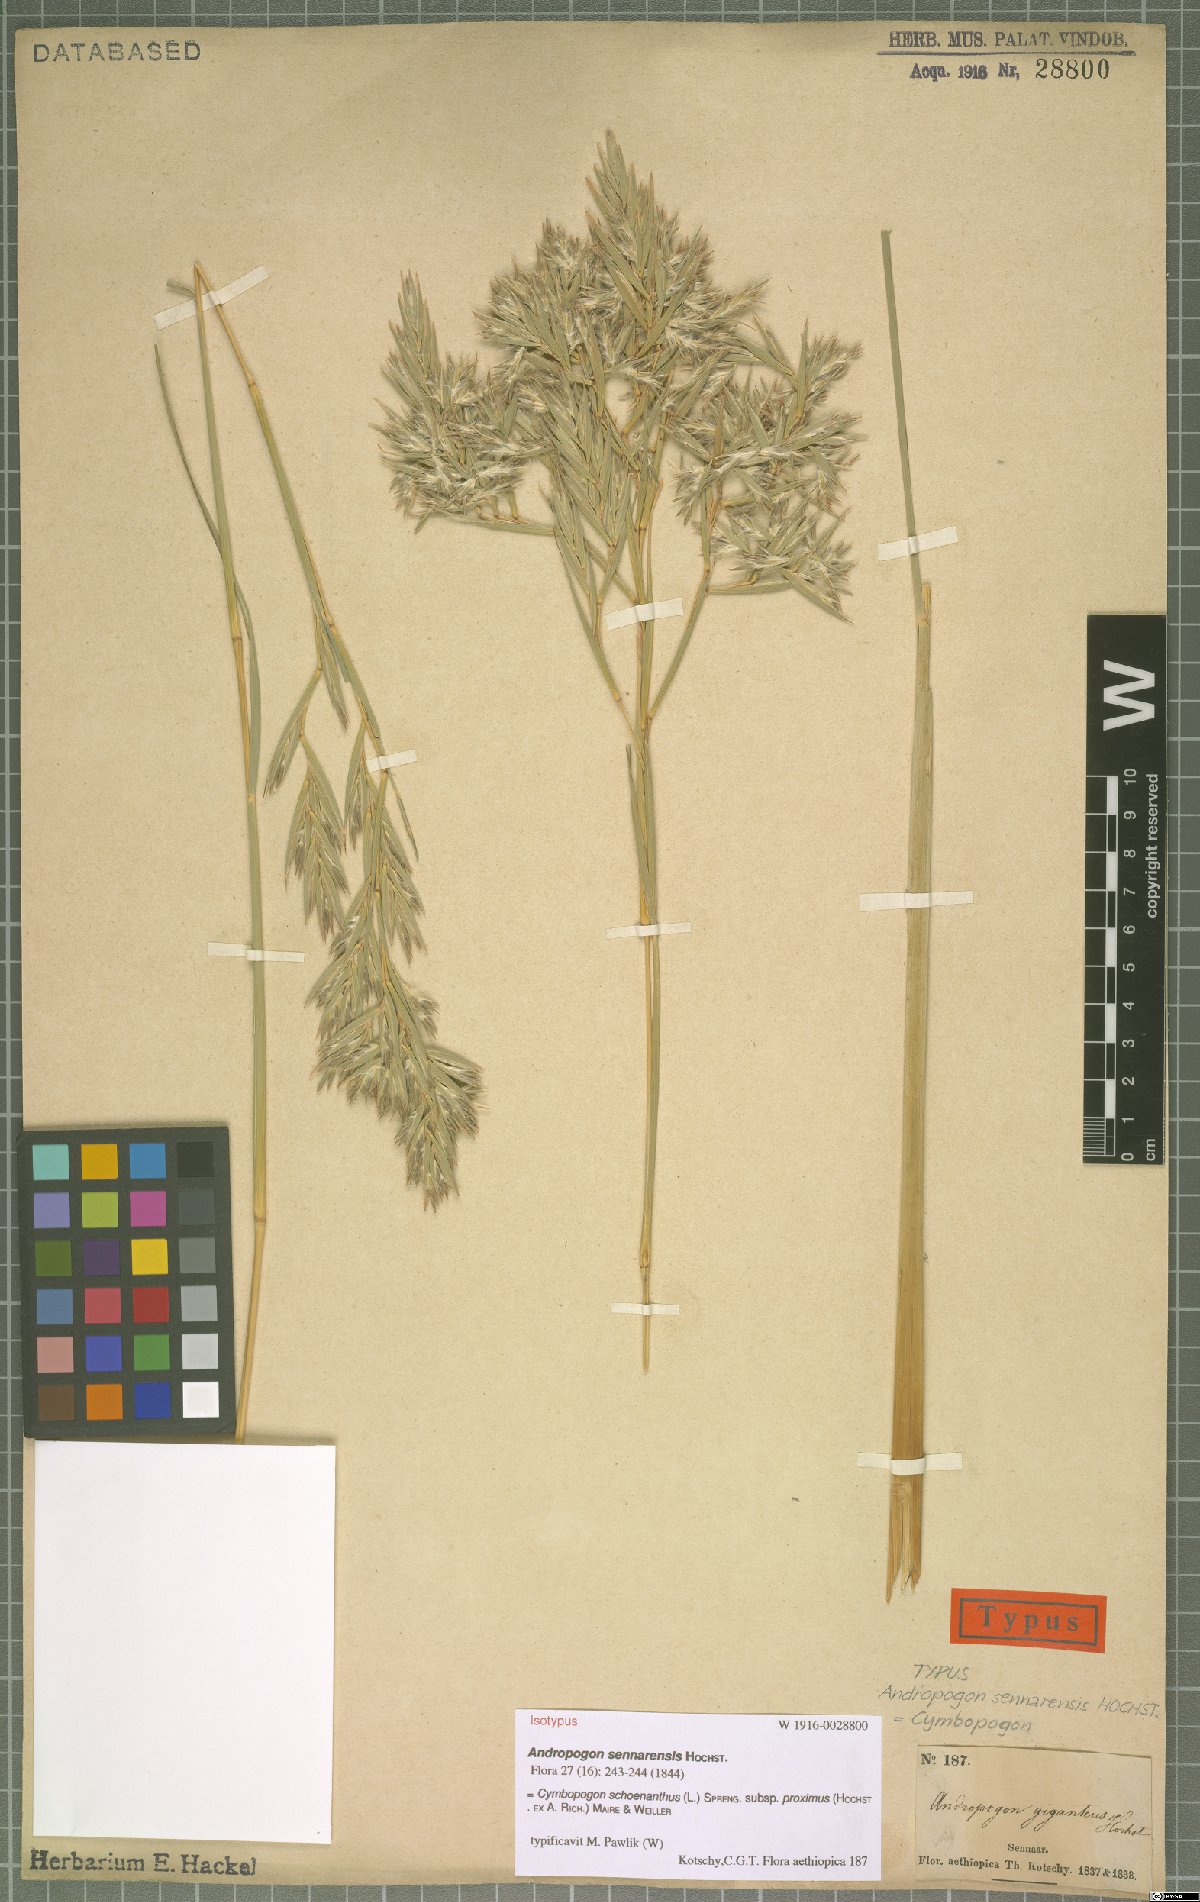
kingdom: Plantae
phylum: Tracheophyta
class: Liliopsida
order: Poales
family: Poaceae
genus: Cymbopogon
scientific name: Cymbopogon schoenanthus
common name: Geranium grass
